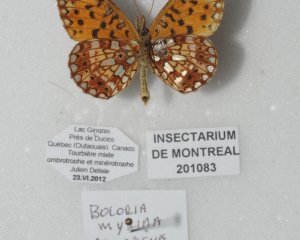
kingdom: Animalia
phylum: Arthropoda
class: Insecta
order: Lepidoptera
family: Nymphalidae
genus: Boloria
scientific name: Boloria selene
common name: Silver-bordered Fritillary
